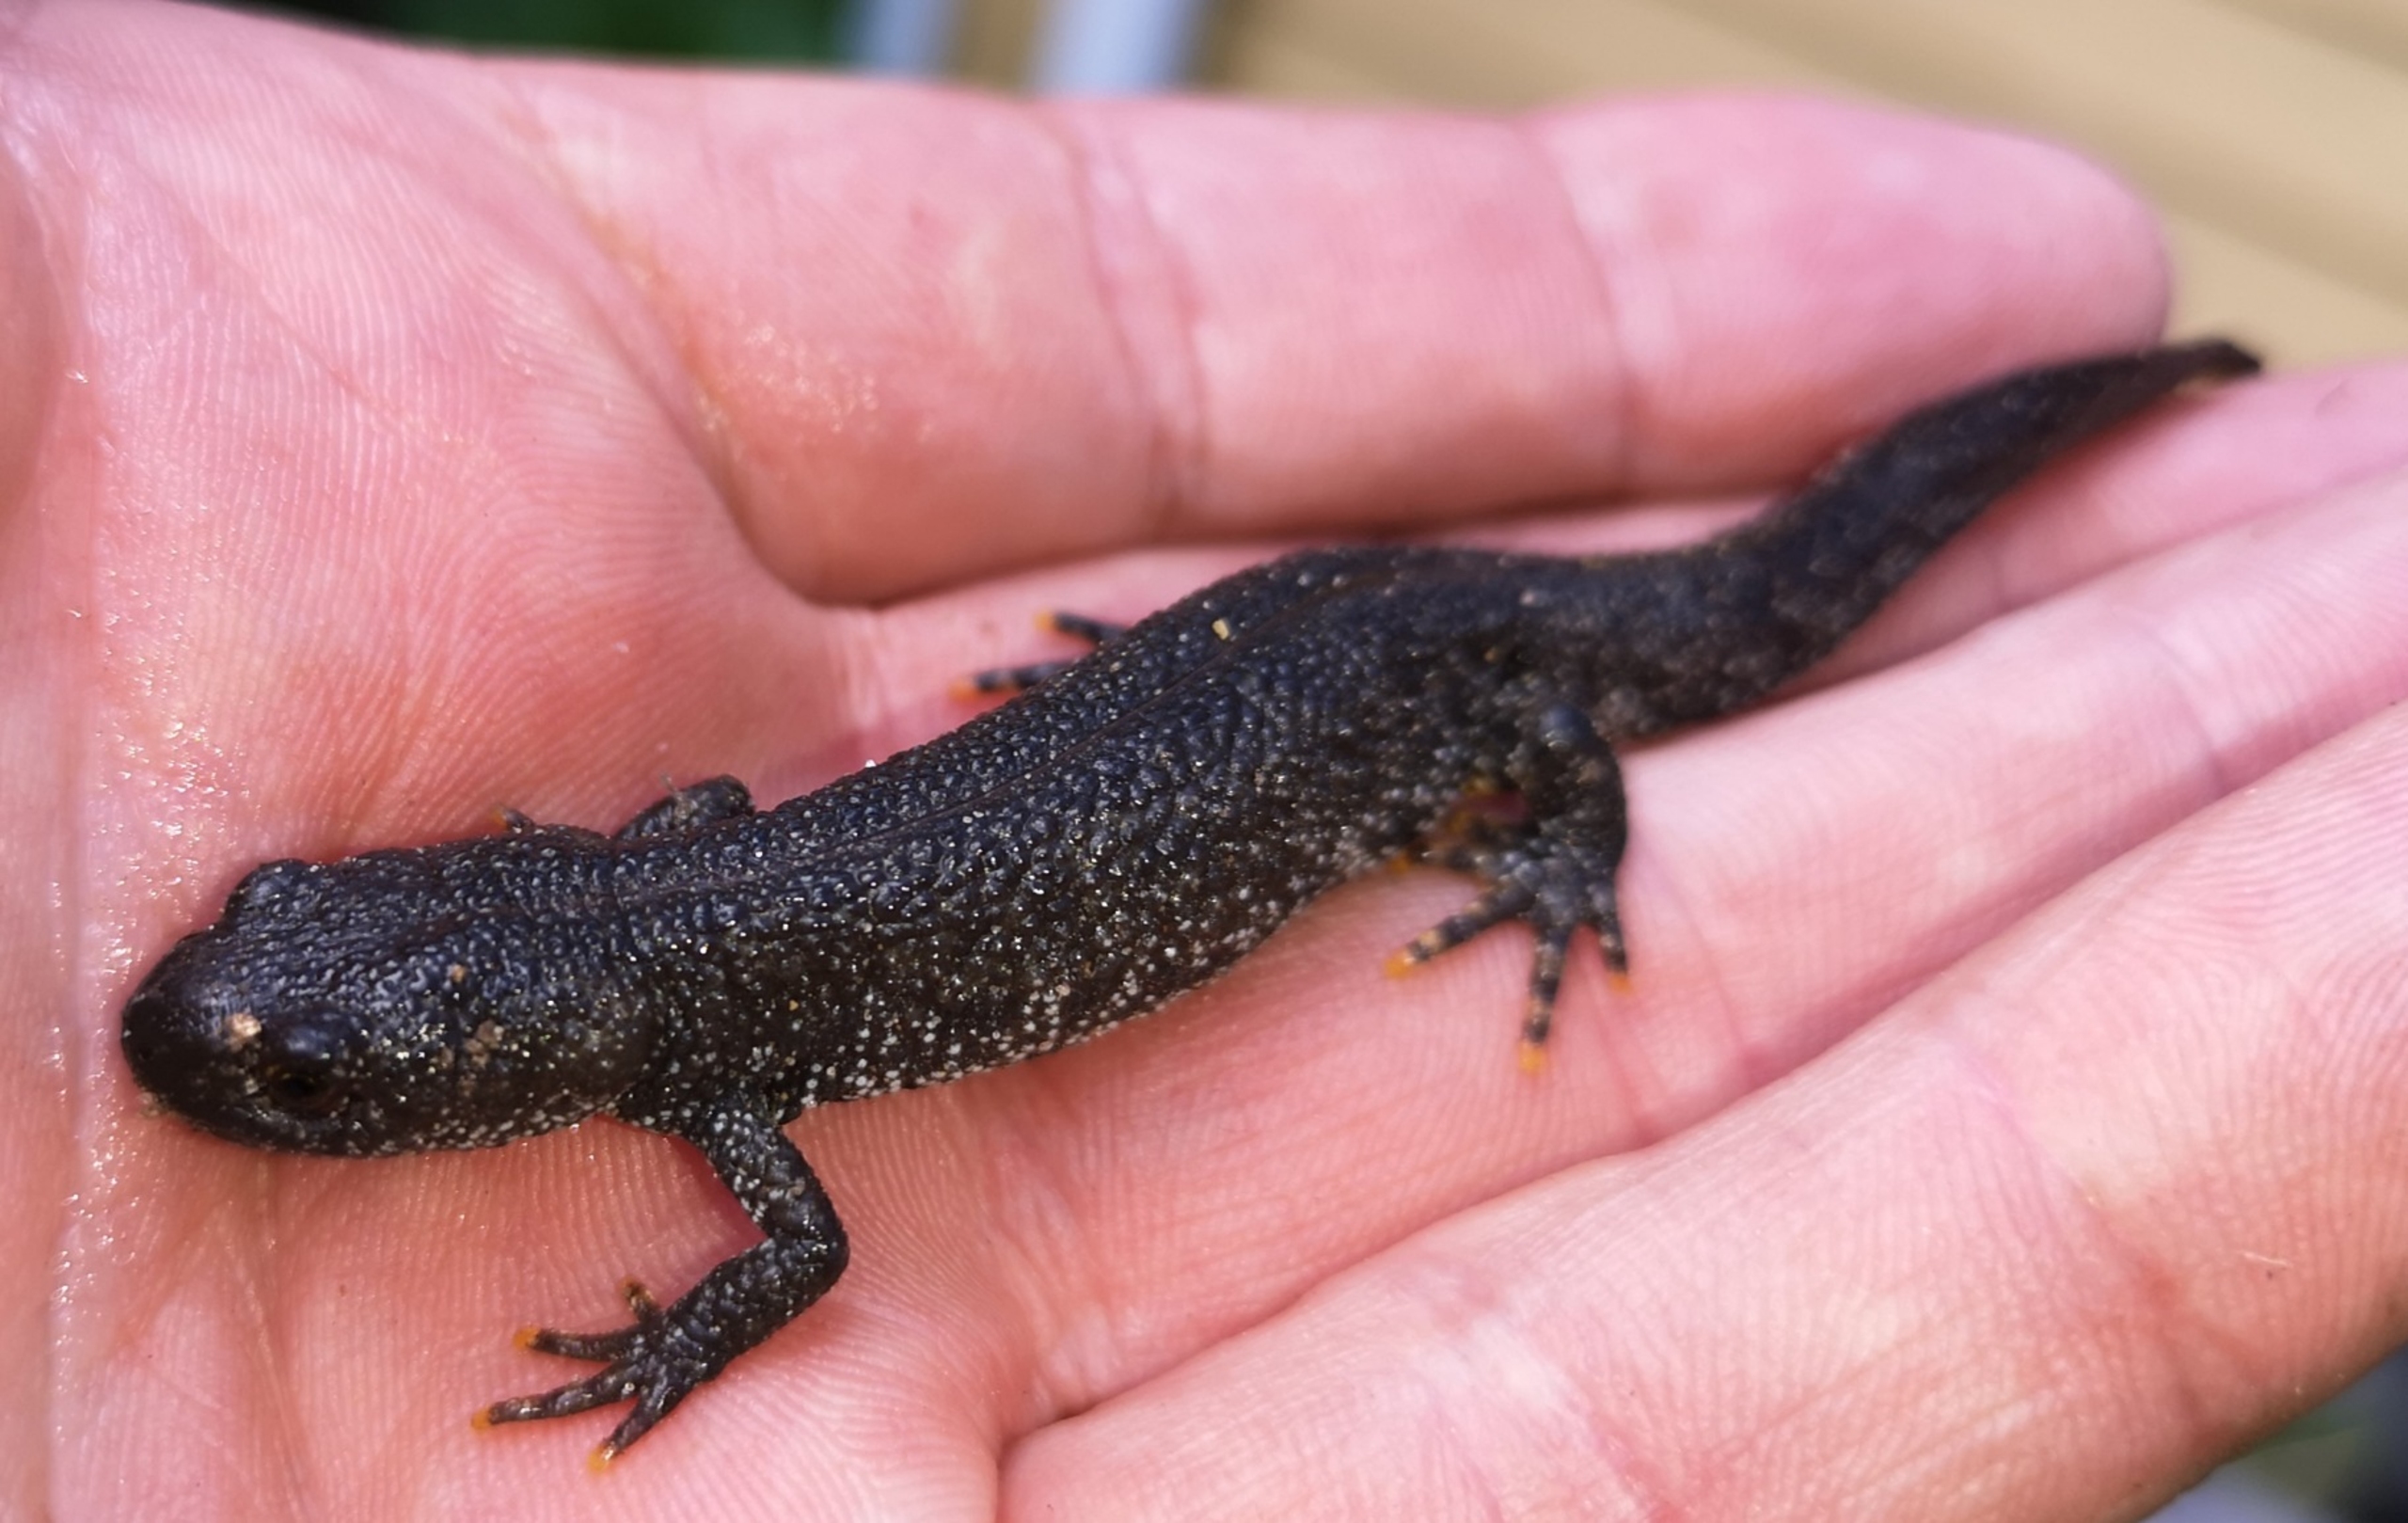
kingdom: Animalia
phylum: Chordata
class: Amphibia
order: Caudata
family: Salamandridae
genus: Triturus
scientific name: Triturus cristatus
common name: Stor vandsalamander
